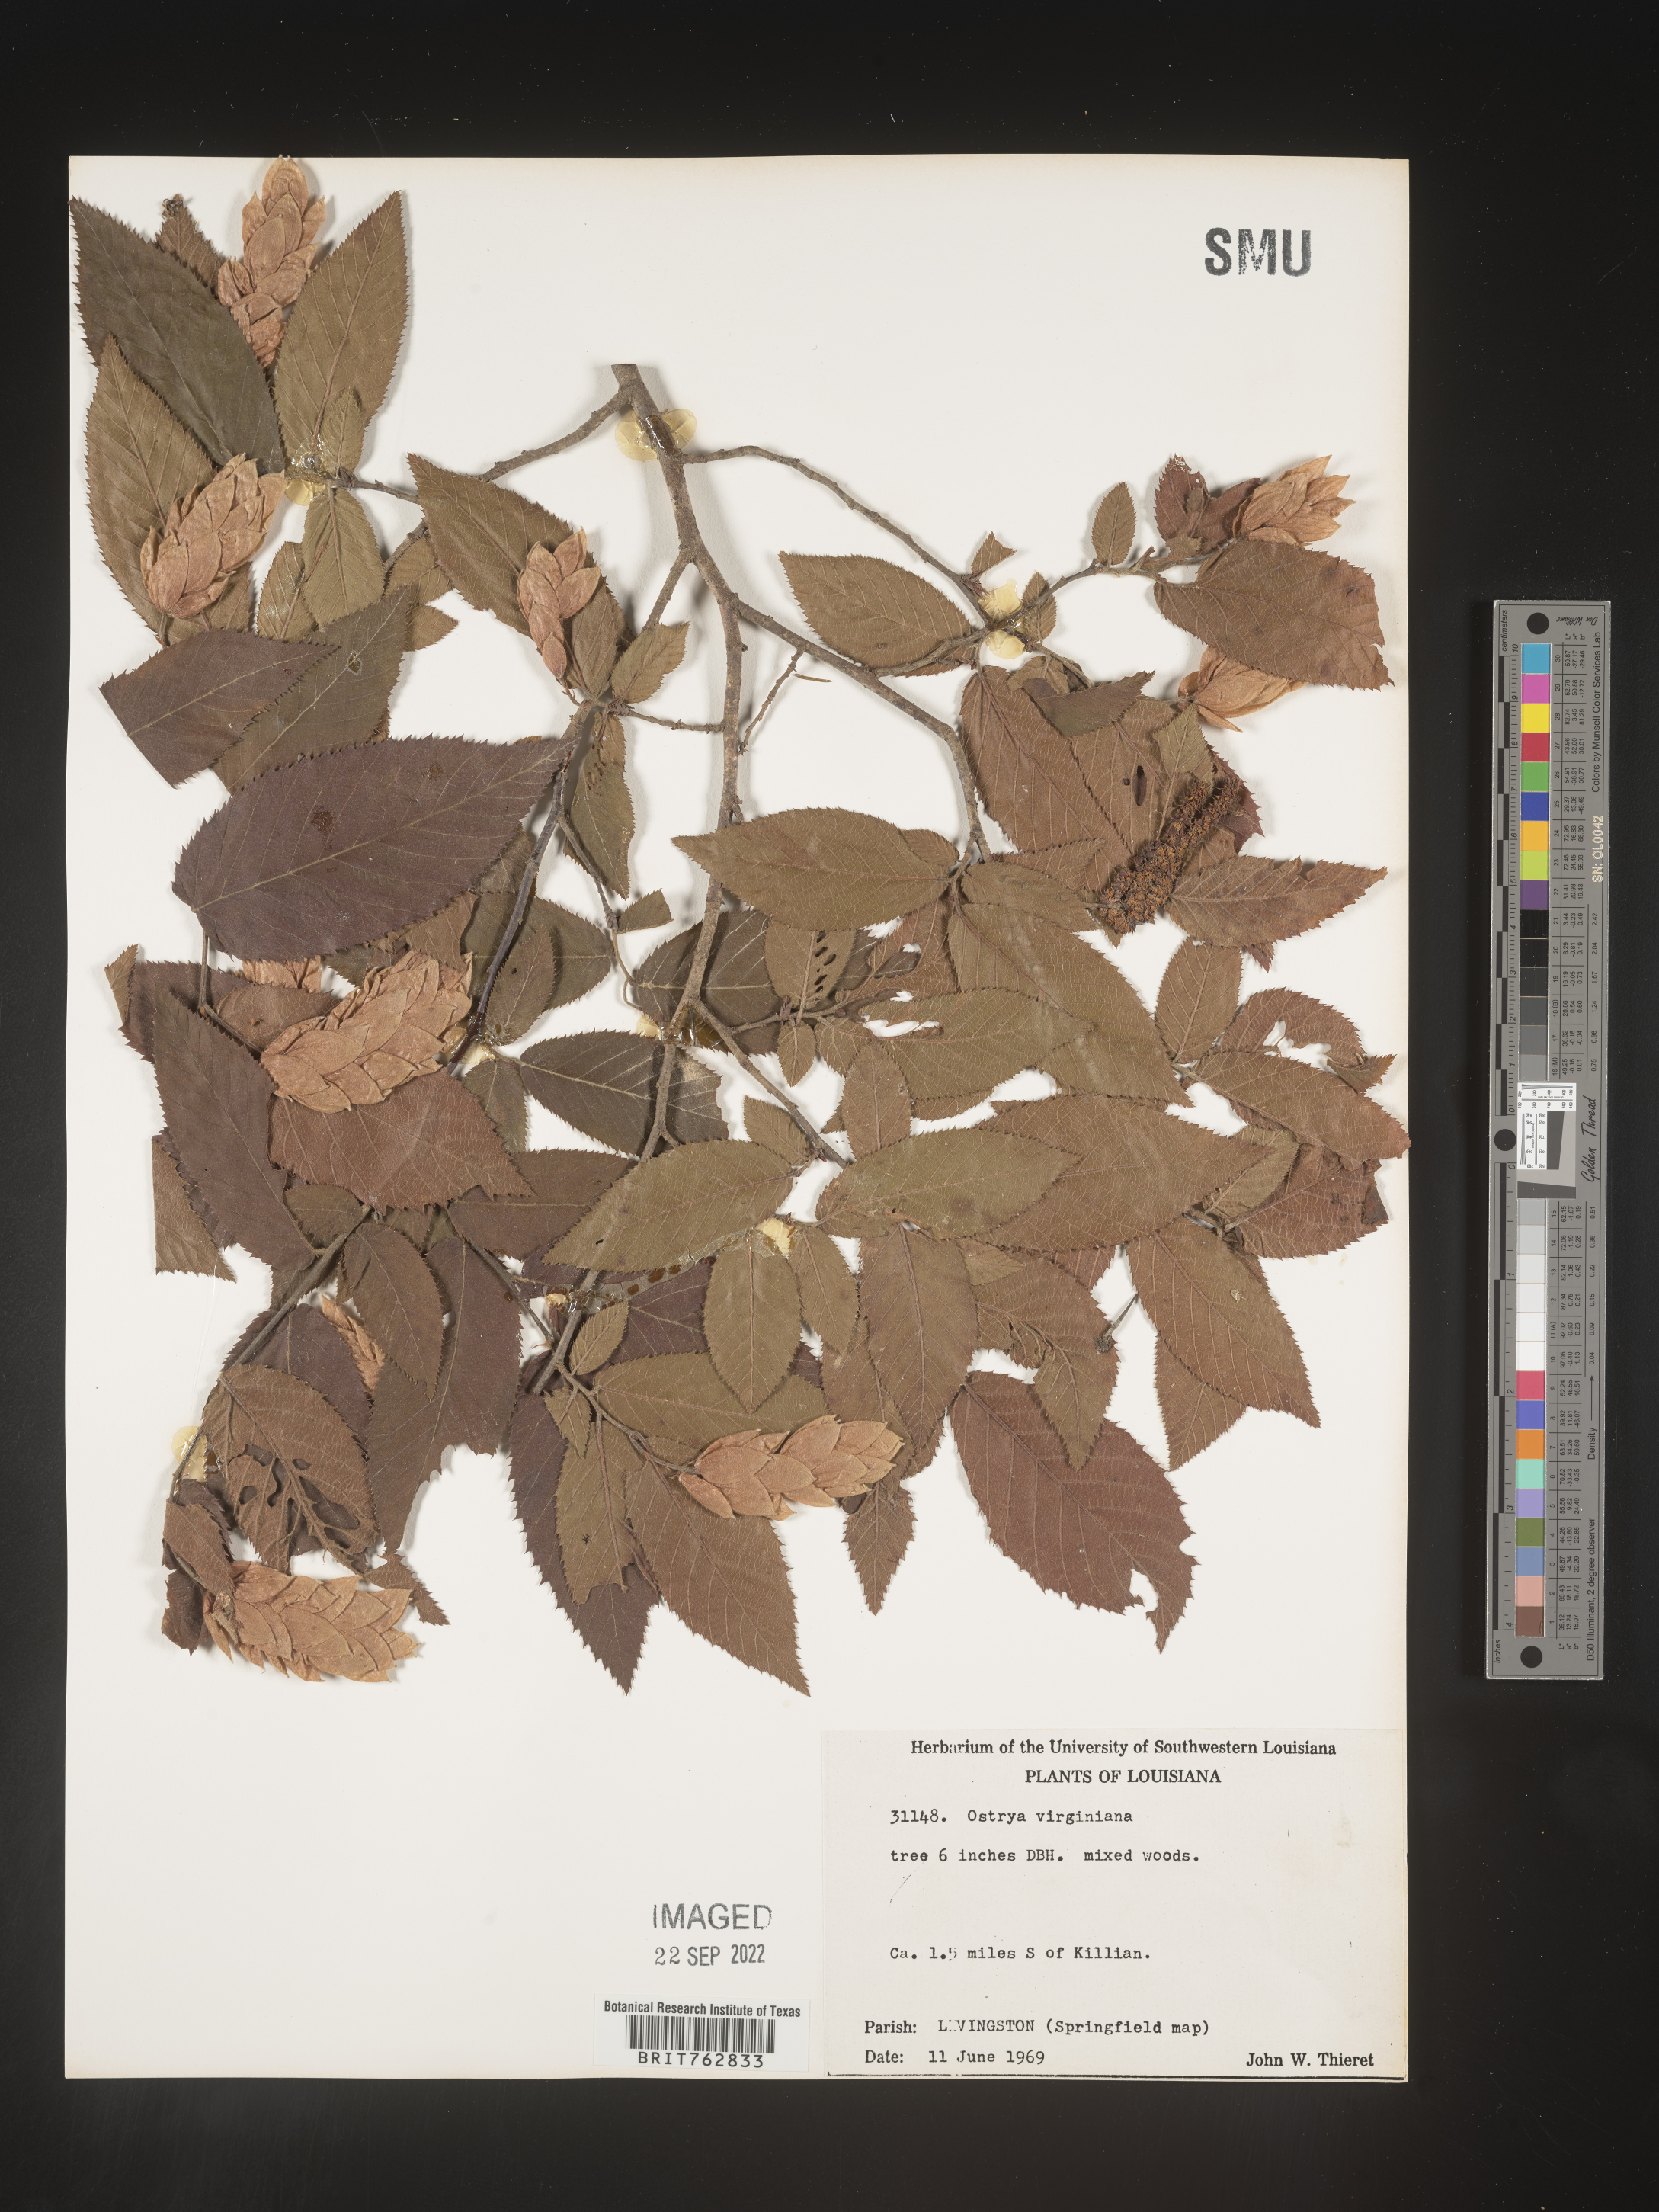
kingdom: Plantae
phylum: Tracheophyta
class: Magnoliopsida
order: Fagales
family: Betulaceae
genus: Ostrya
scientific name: Ostrya virginiana
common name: Ironwood
